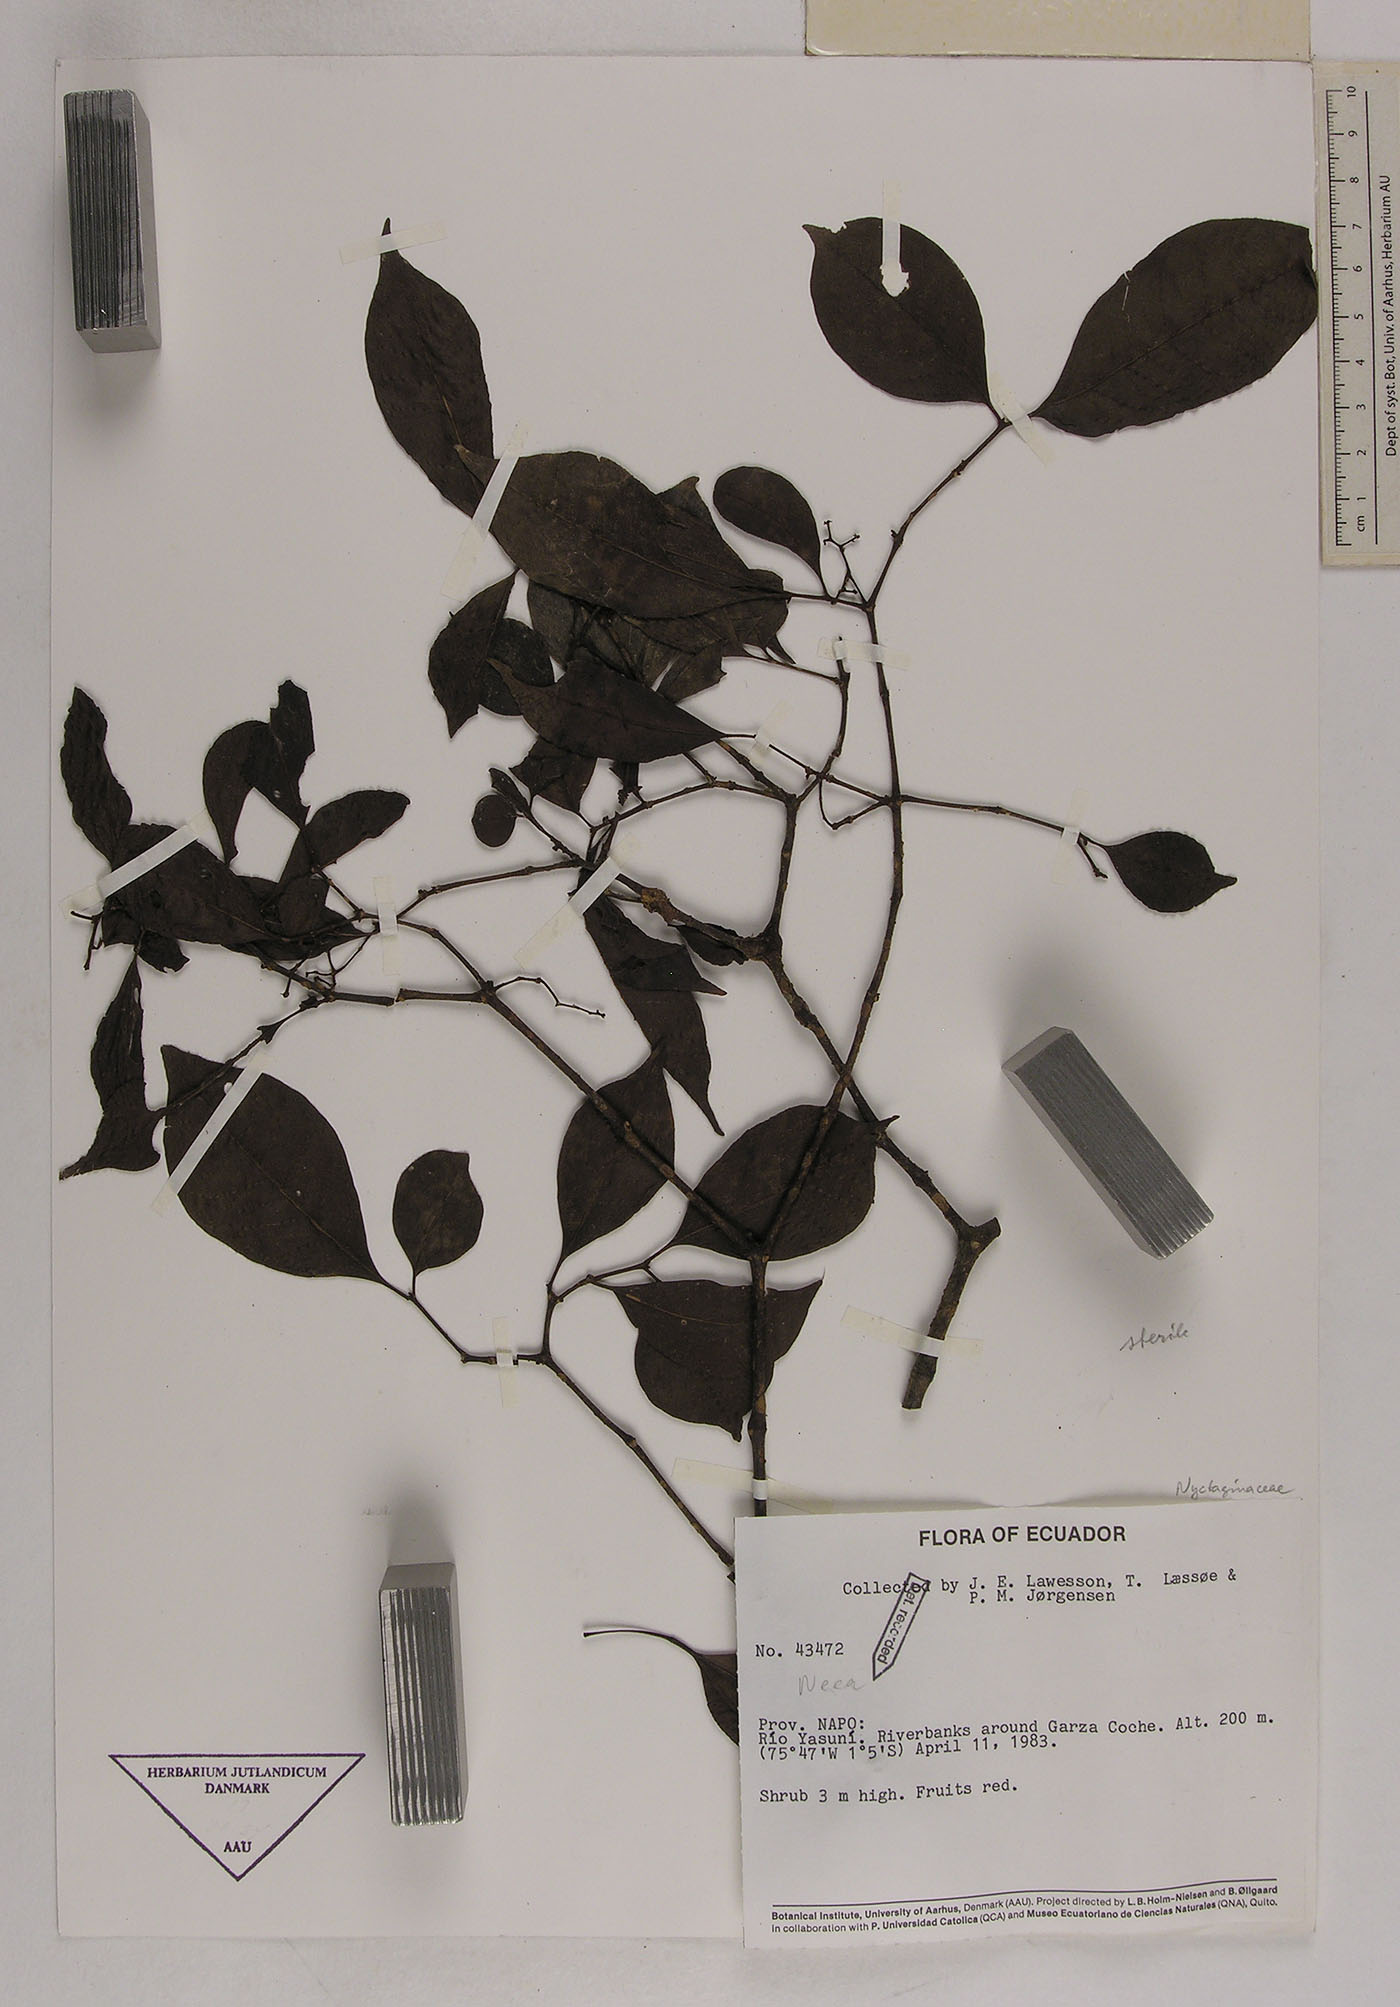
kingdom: Plantae
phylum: Tracheophyta
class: Magnoliopsida
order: Caryophyllales
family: Nyctaginaceae
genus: Neea
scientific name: Neea
